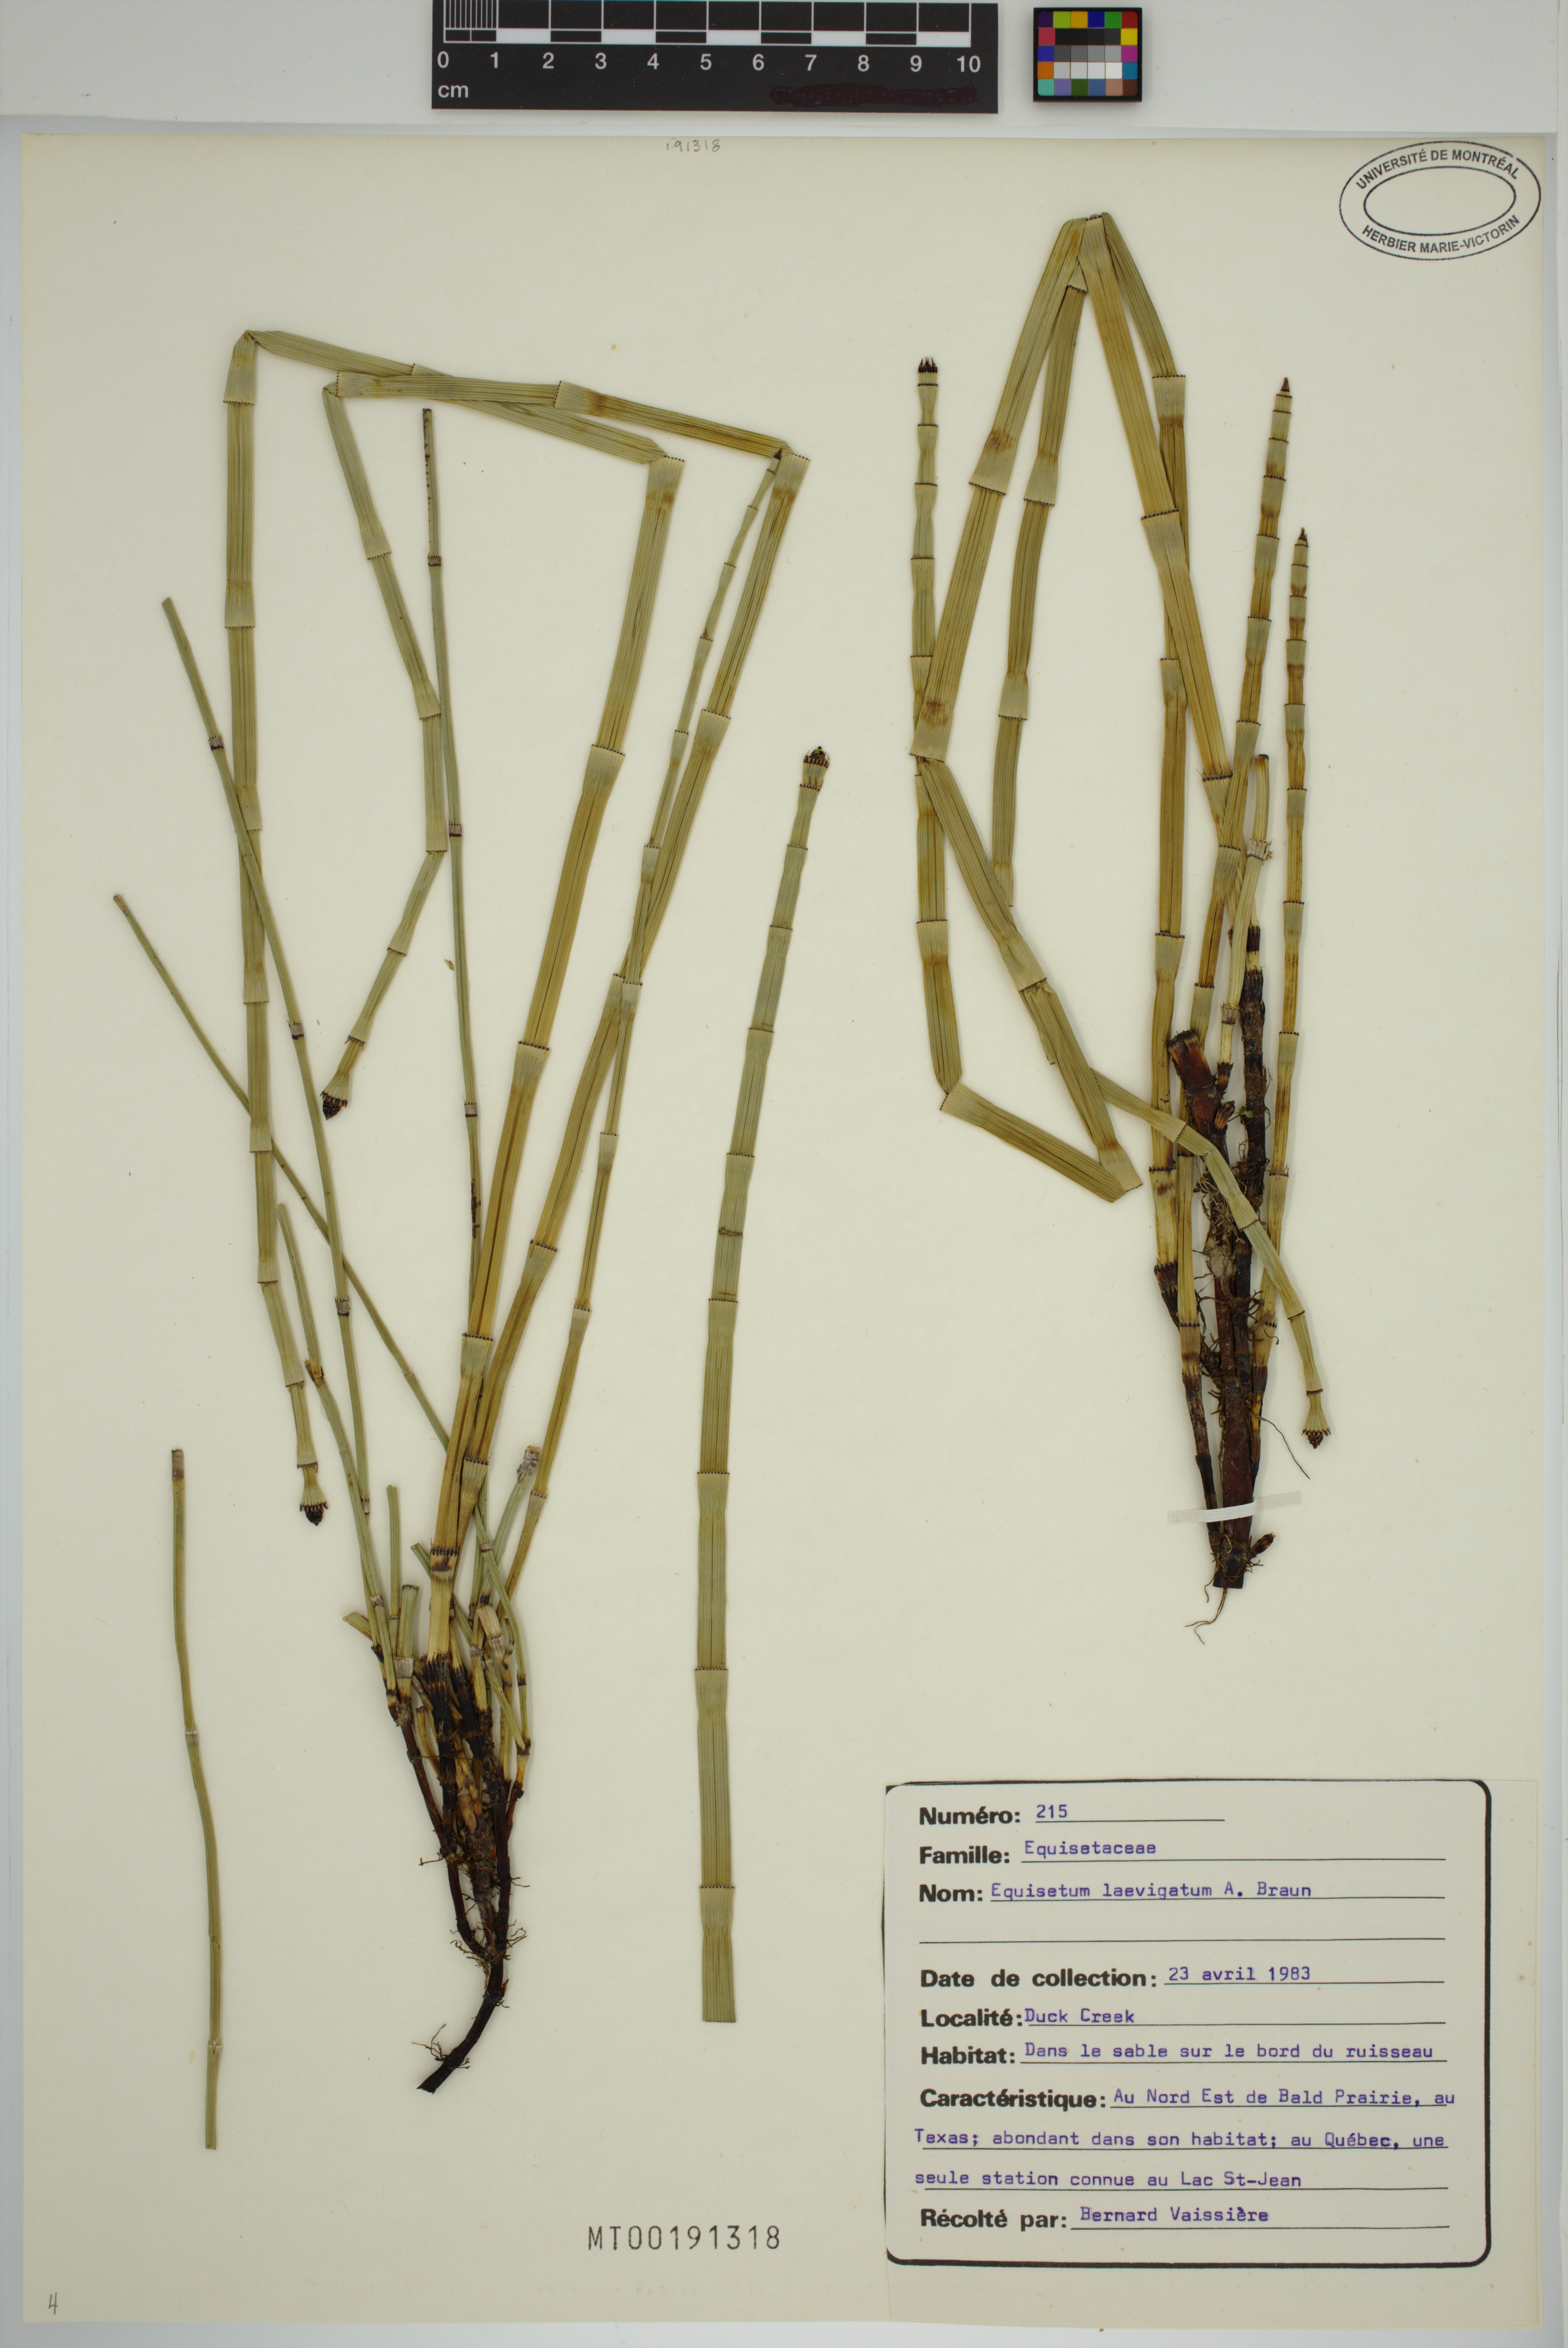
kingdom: Plantae
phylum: Tracheophyta
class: Polypodiopsida
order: Equisetales
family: Equisetaceae
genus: Equisetum
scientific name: Equisetum laevigatum
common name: Smooth scouring-rush
